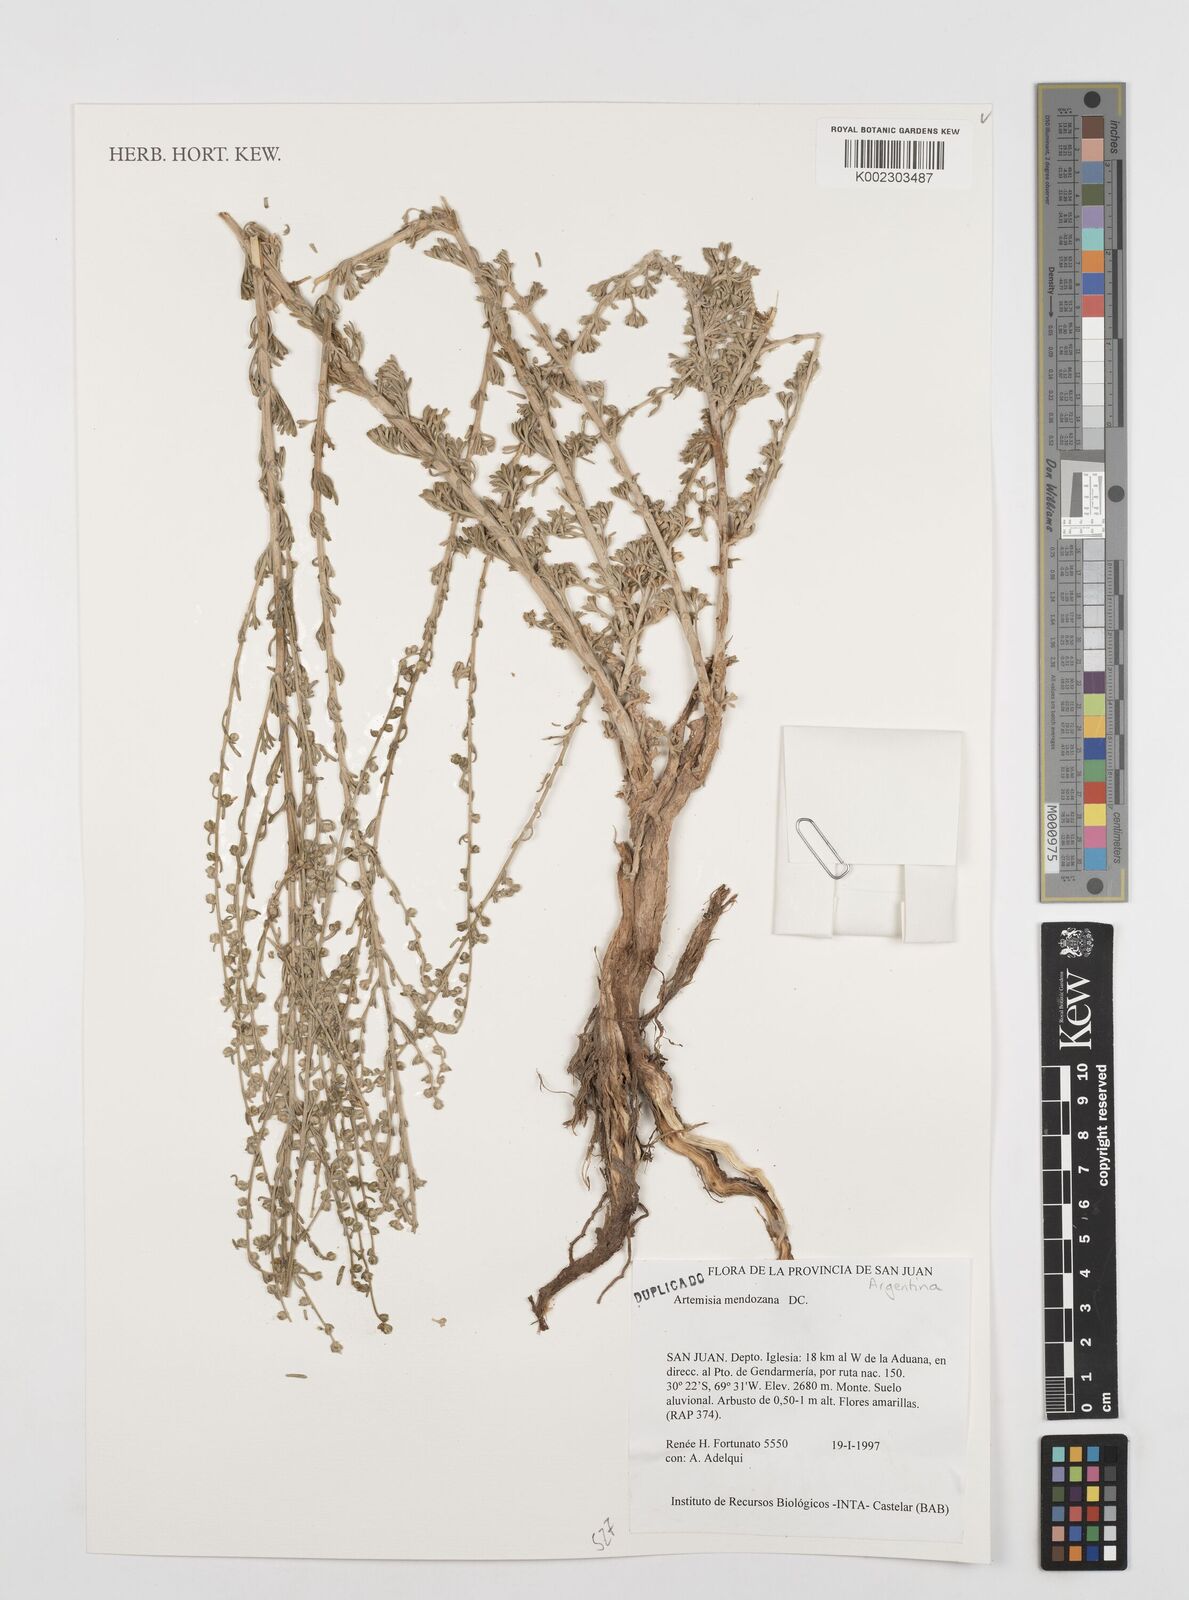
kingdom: Plantae
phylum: Tracheophyta
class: Magnoliopsida
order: Asterales
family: Asteraceae
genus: Artemisia
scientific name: Artemisia mendozana
